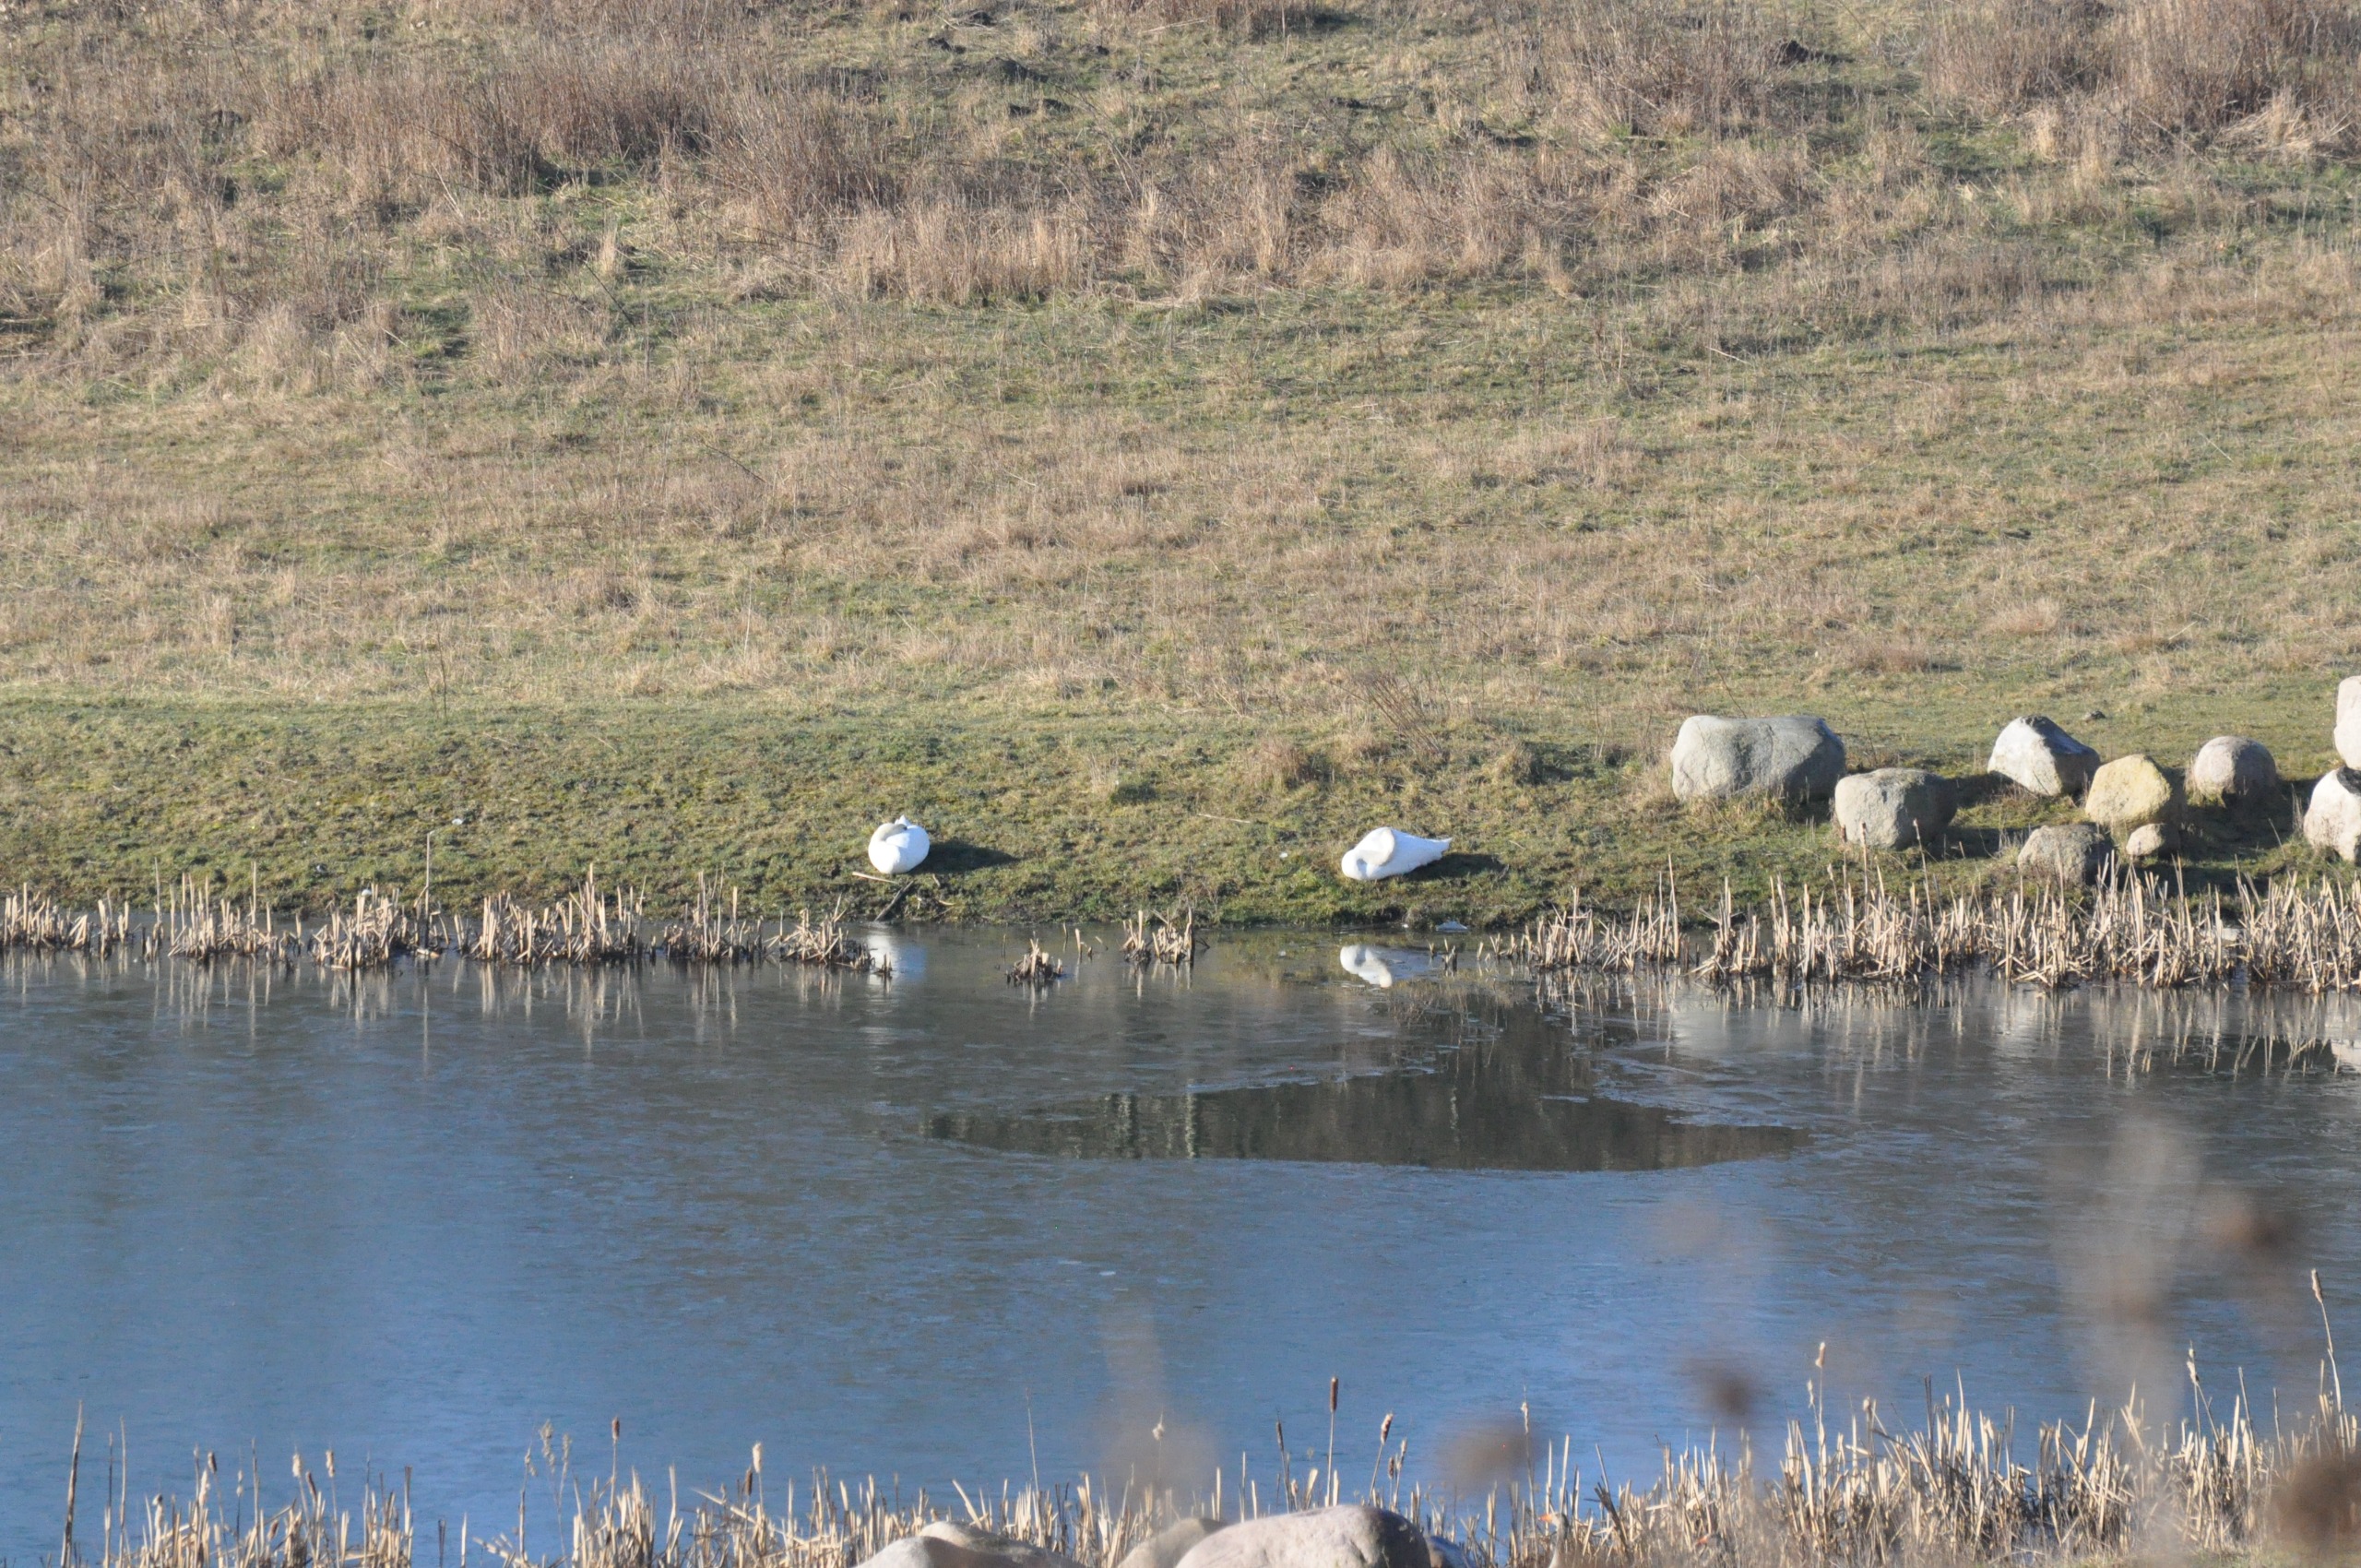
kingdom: Animalia
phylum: Chordata
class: Aves
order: Anseriformes
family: Anatidae
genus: Cygnus
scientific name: Cygnus olor
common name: Knopsvane
